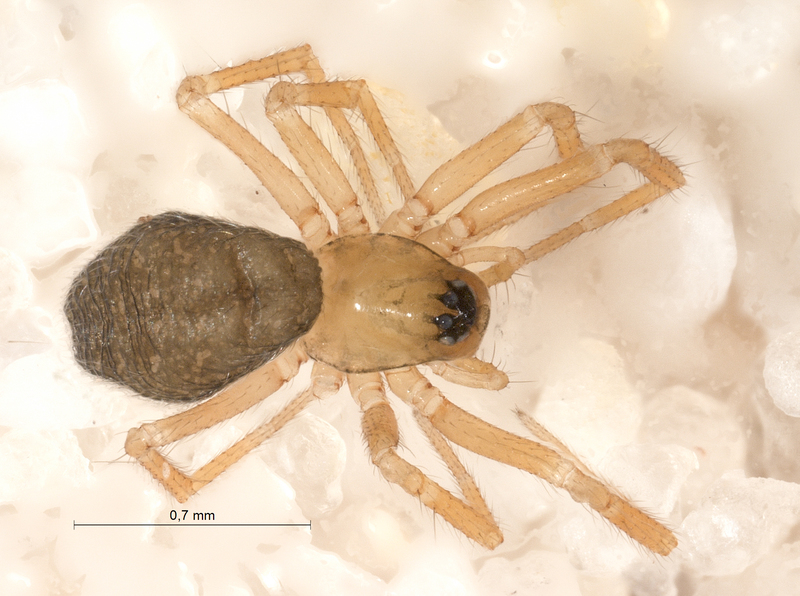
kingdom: Animalia
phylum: Arthropoda
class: Arachnida
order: Araneae
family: Linyphiidae
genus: Centromerus
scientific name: Centromerus dilutus
